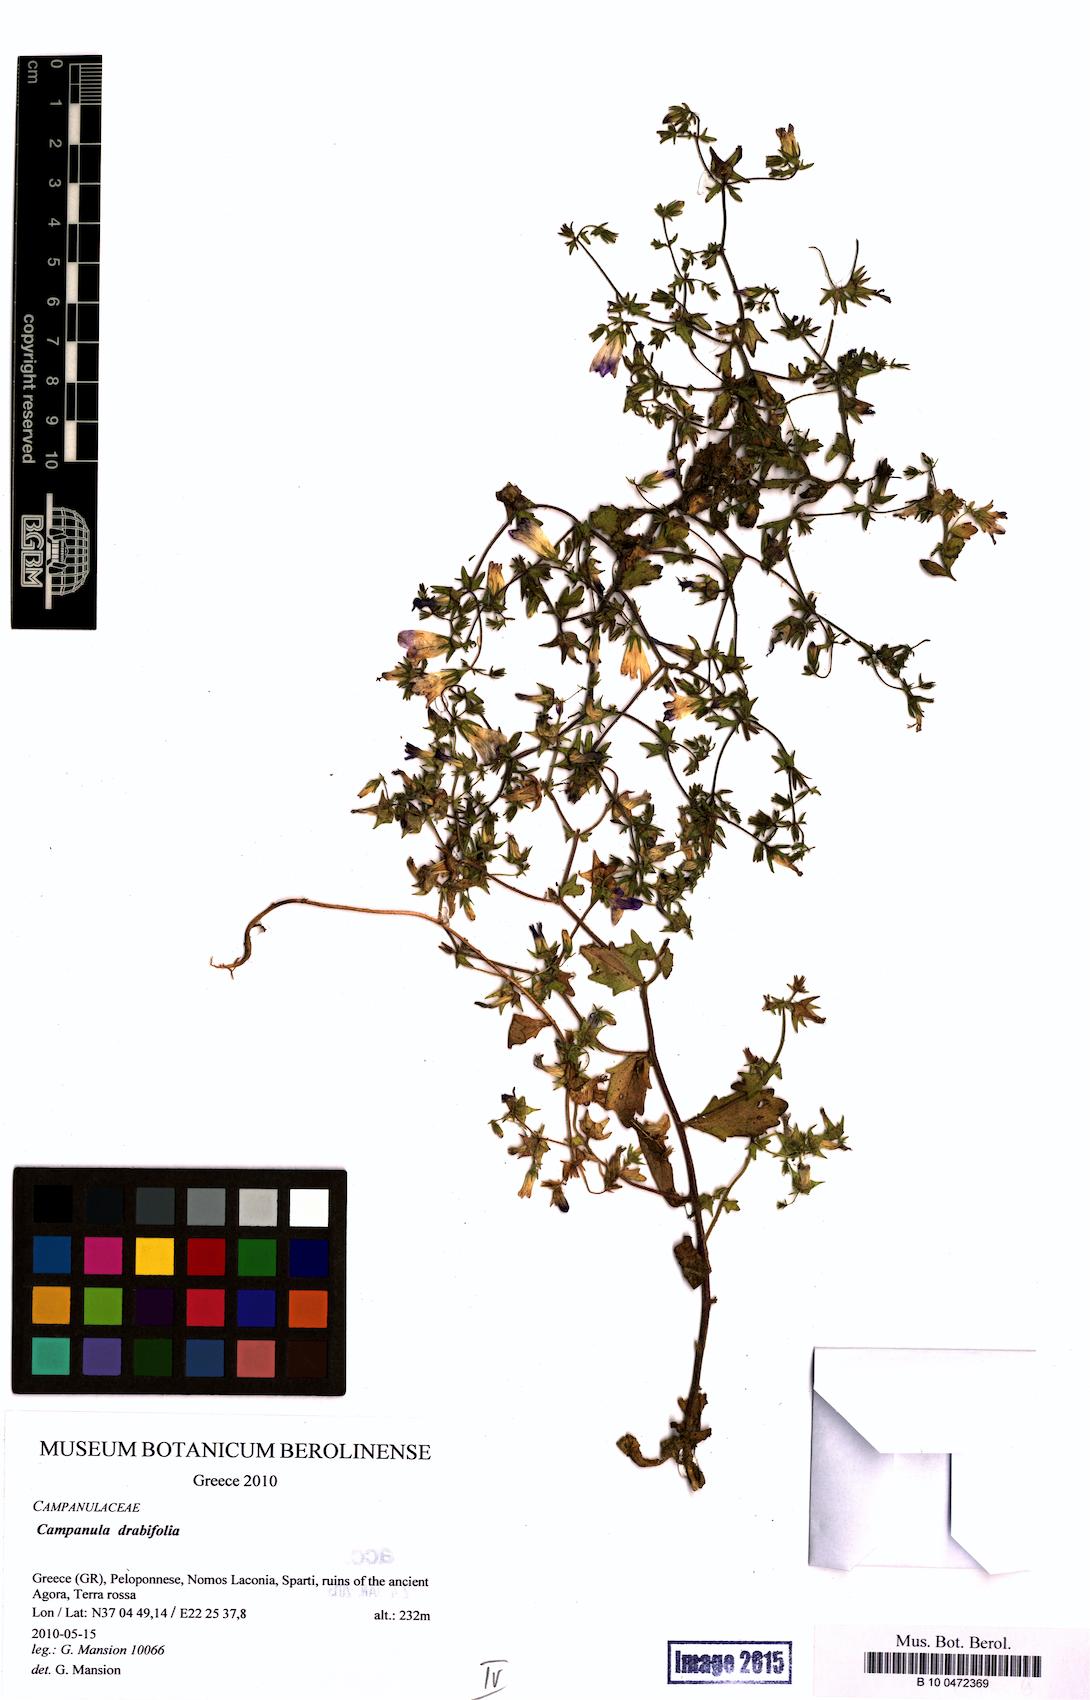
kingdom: Plantae
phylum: Tracheophyta
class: Magnoliopsida
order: Asterales
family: Campanulaceae
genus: Campanula
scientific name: Campanula drabifolia
